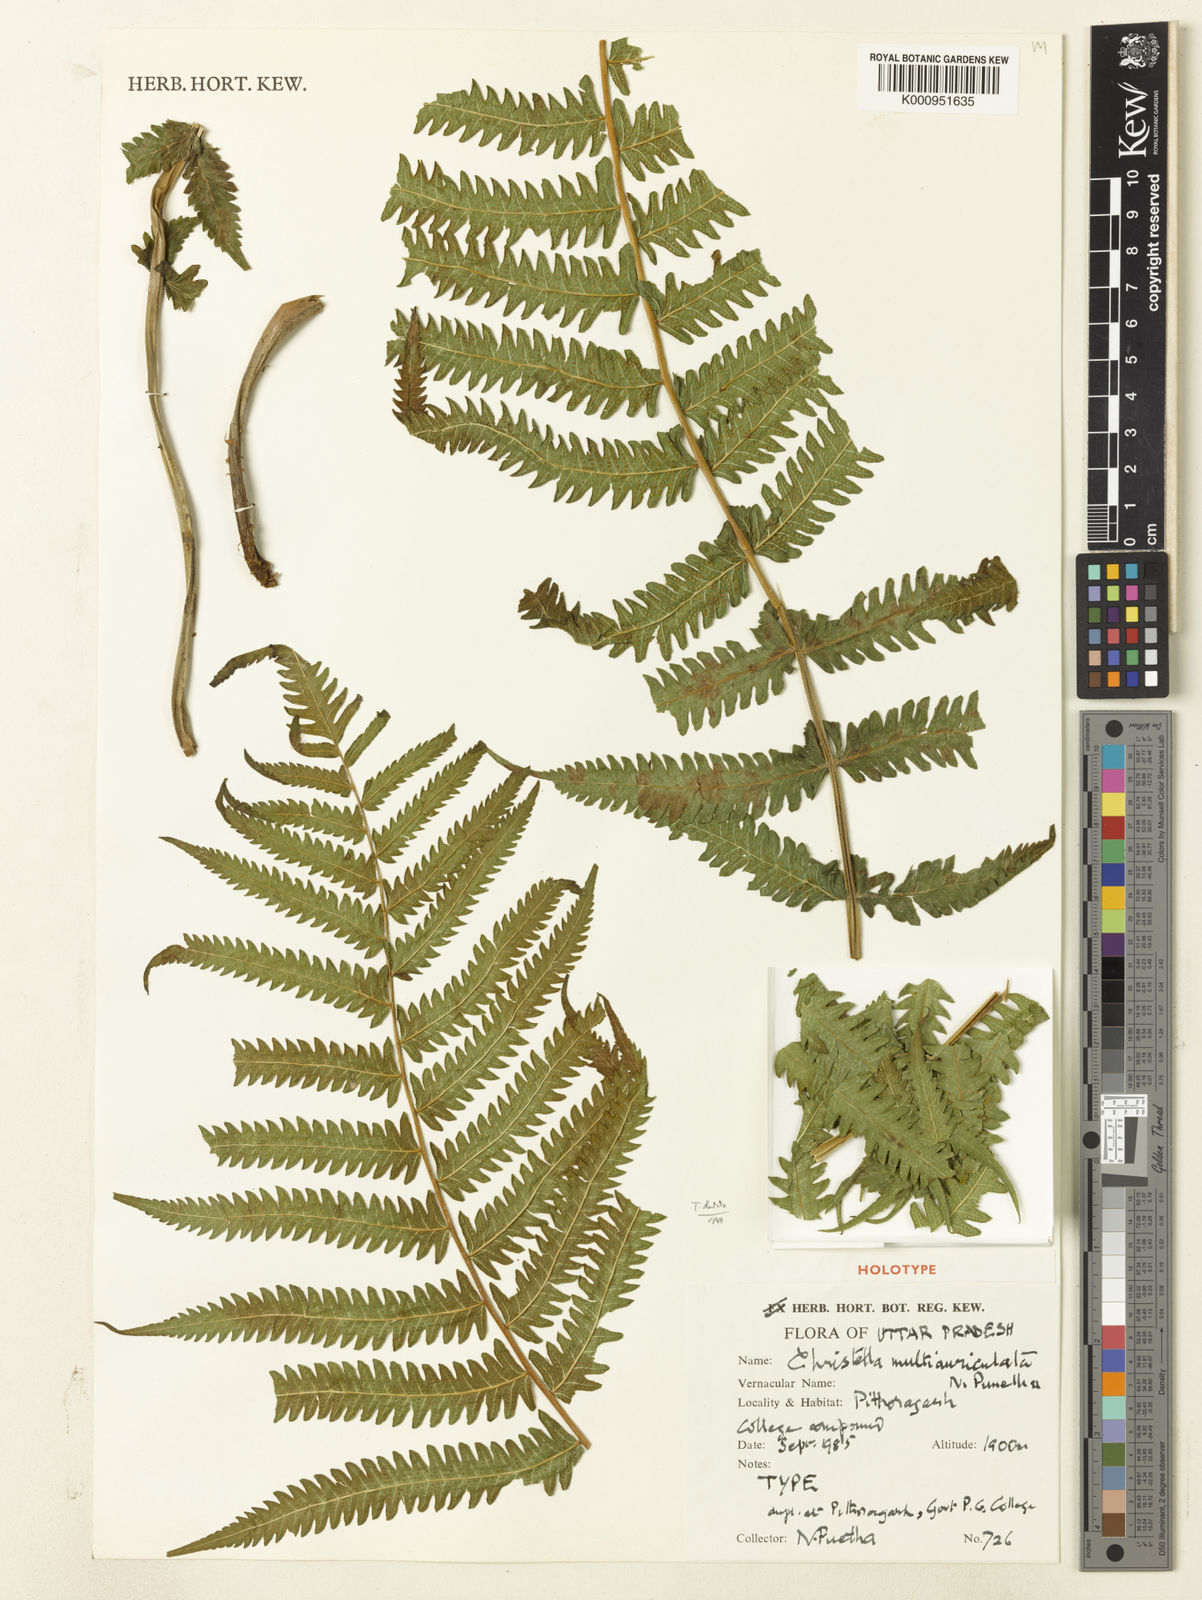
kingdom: Plantae
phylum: Tracheophyta
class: Polypodiopsida
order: Polypodiales
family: Thelypteridaceae
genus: Christella
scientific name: Christella multiauriculata
